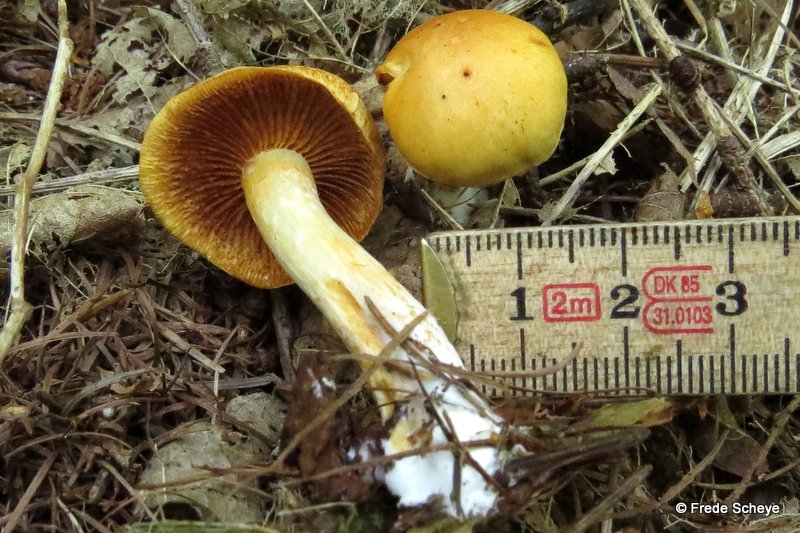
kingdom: Fungi
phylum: Basidiomycota
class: Agaricomycetes
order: Agaricales
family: Hymenogastraceae
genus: Gymnopilus
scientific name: Gymnopilus penetrans
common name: plettet flammehat
